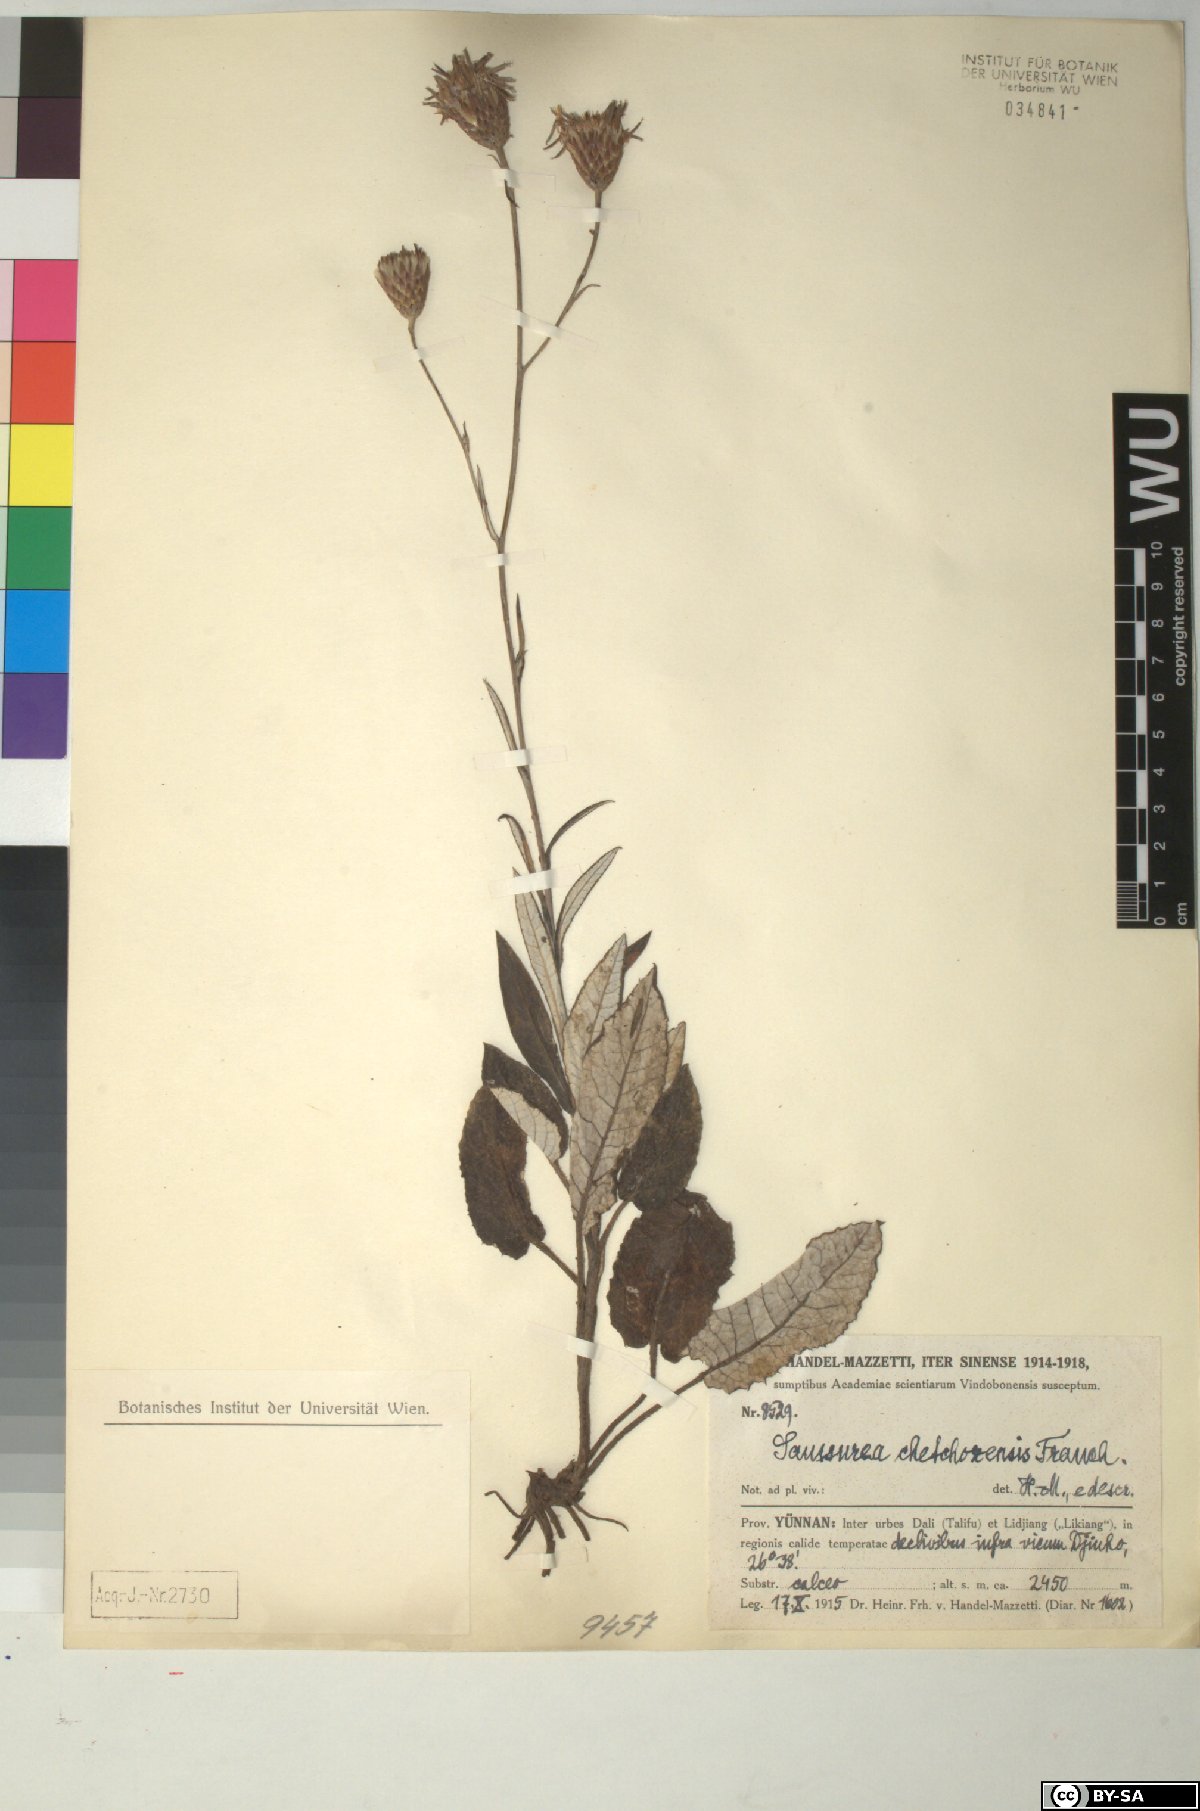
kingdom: Plantae
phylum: Tracheophyta
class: Magnoliopsida
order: Asterales
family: Asteraceae
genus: Saussurea
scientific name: Saussurea chetchozensis
